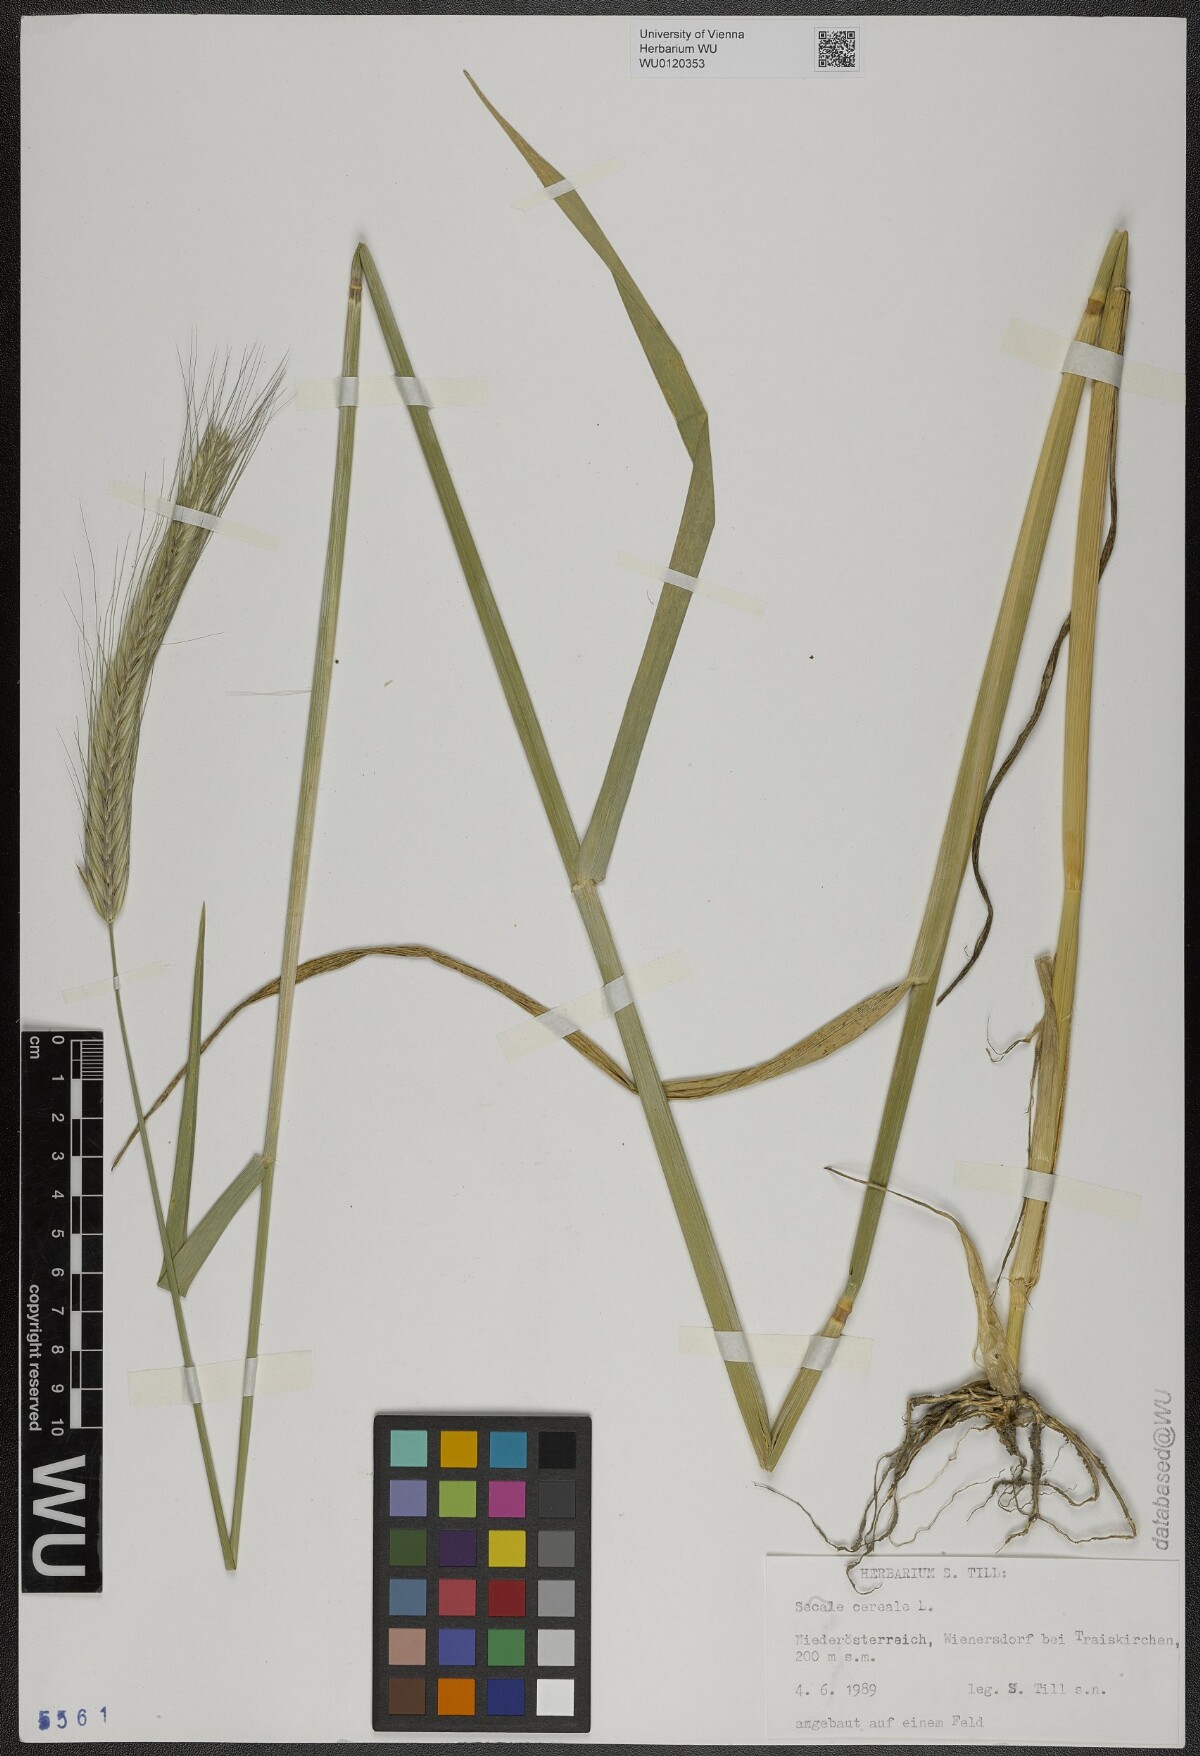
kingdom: Plantae
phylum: Tracheophyta
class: Liliopsida
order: Poales
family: Poaceae
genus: Secale
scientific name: Secale cereale
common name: Rye
